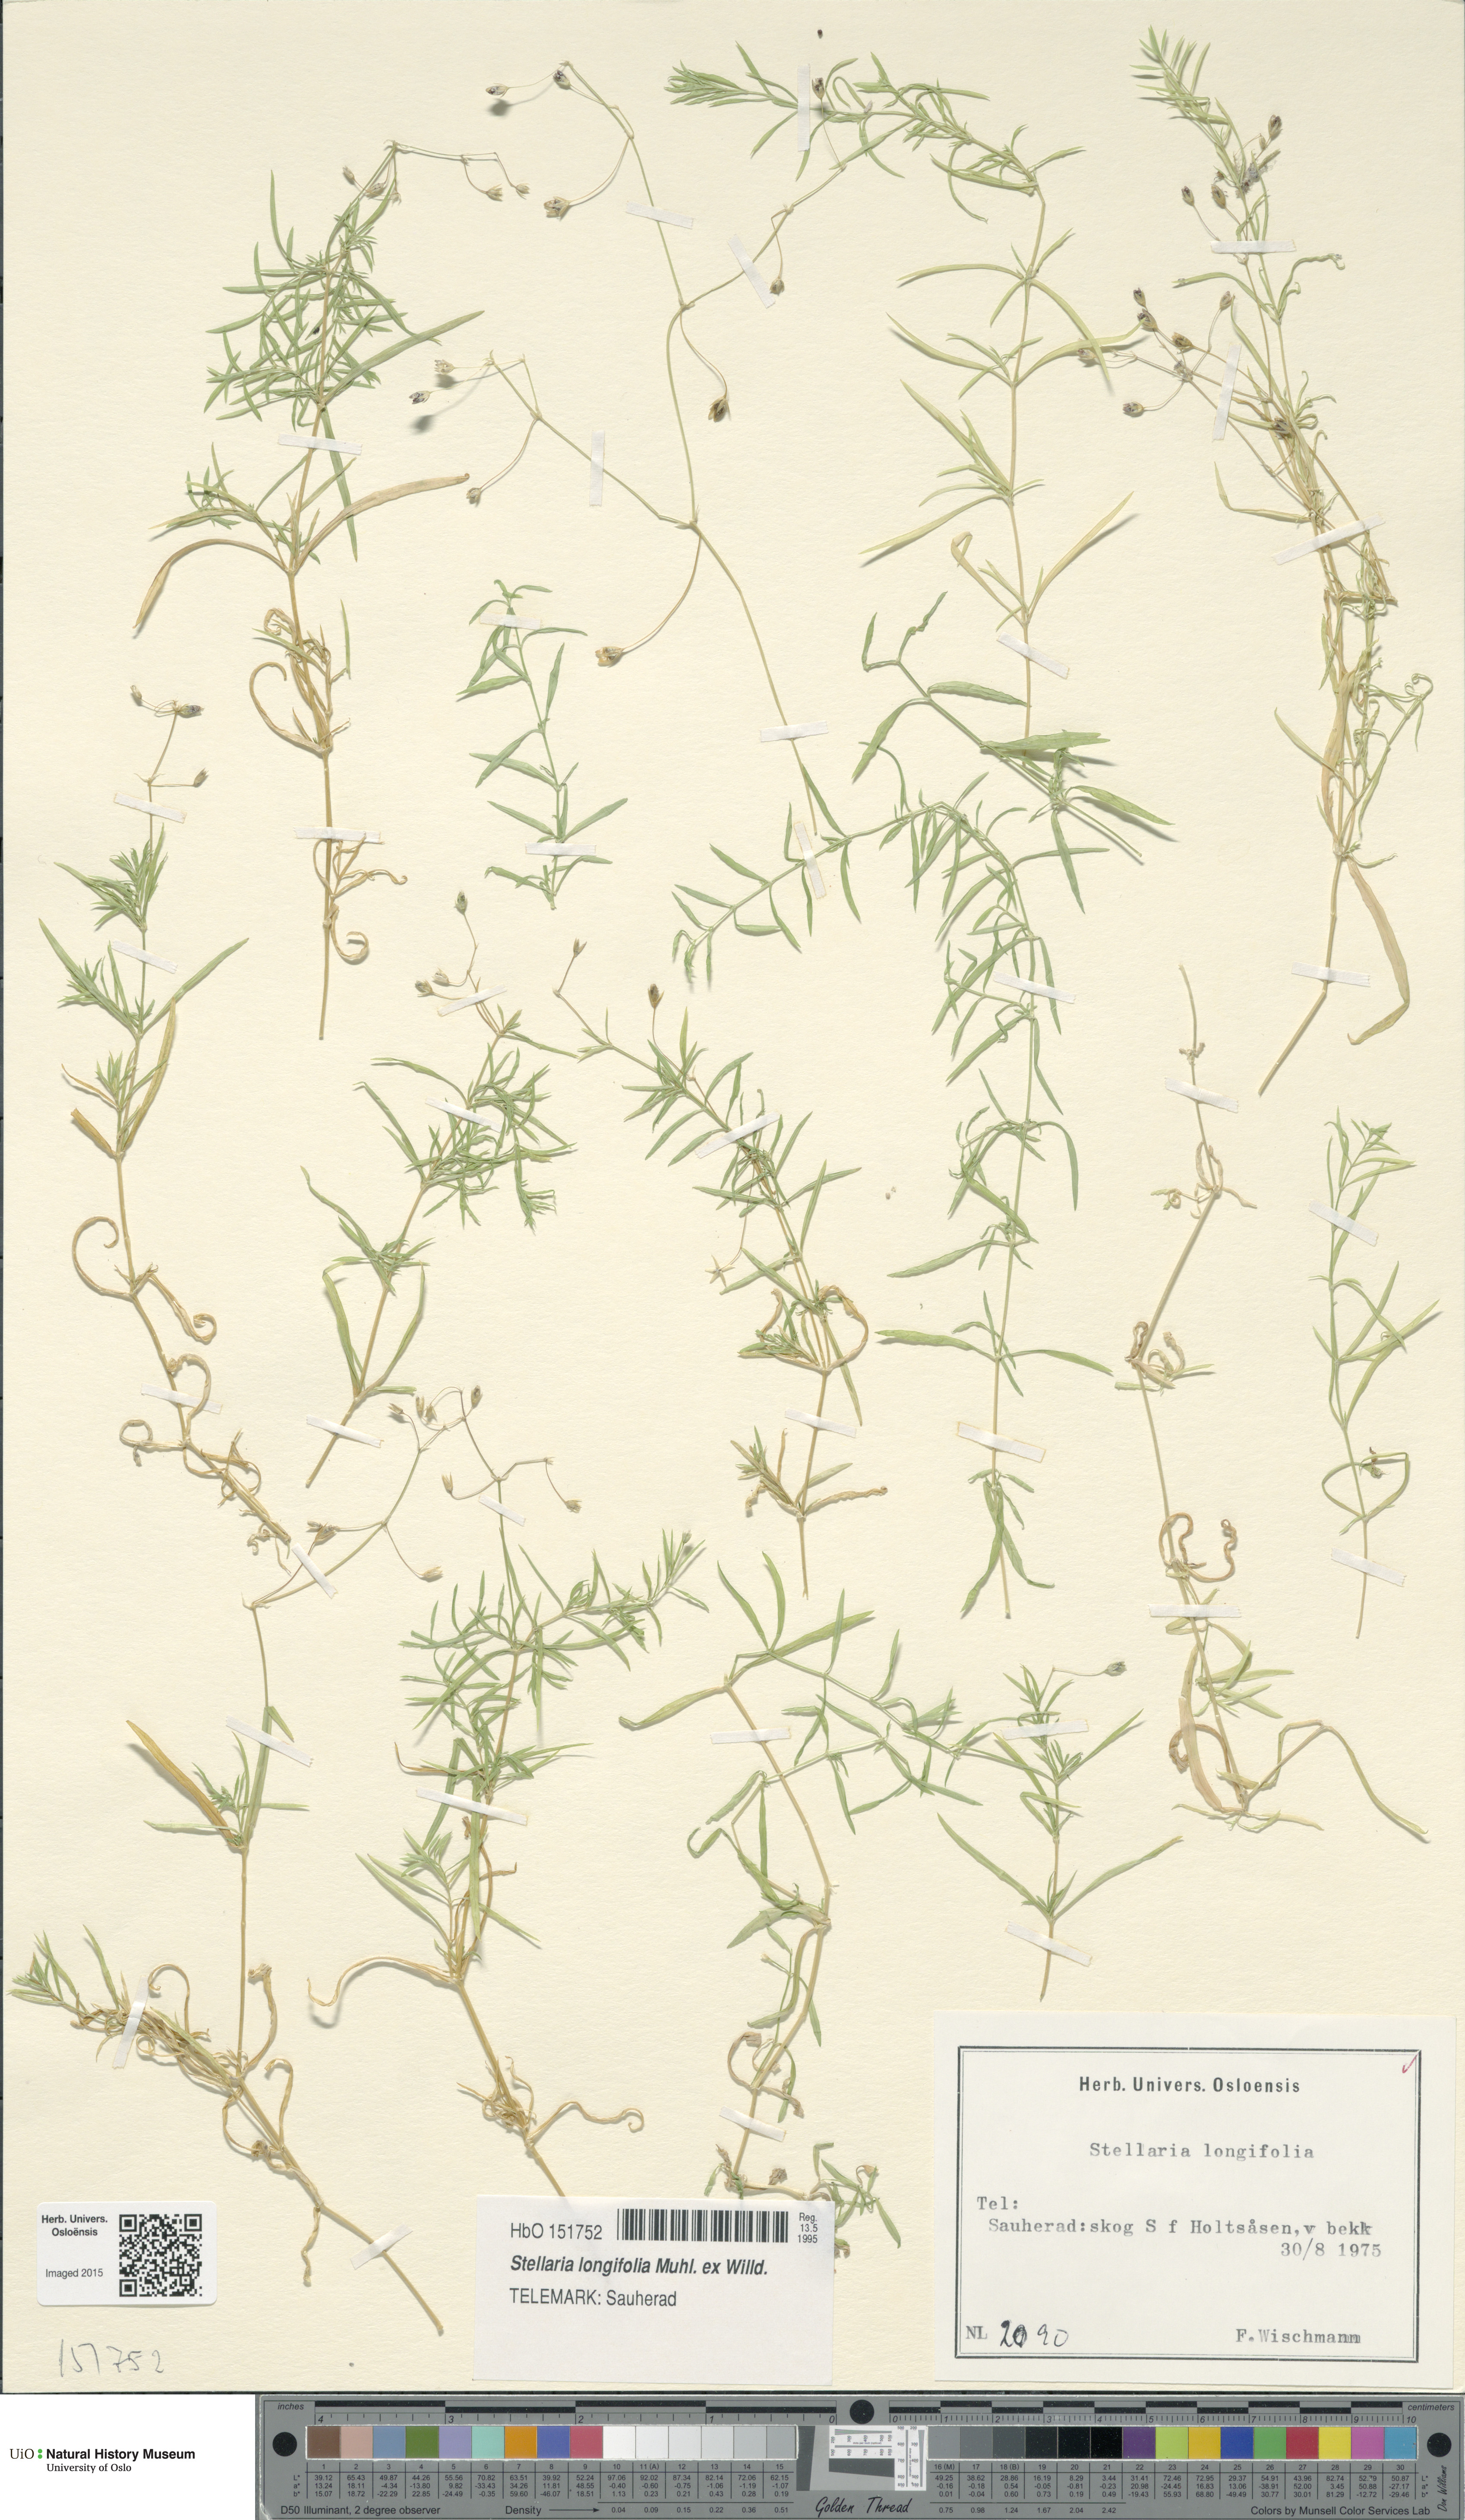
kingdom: Plantae
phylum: Tracheophyta
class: Magnoliopsida
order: Caryophyllales
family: Caryophyllaceae
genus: Stellaria
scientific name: Stellaria longifolia
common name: Long-leaved chickweed
